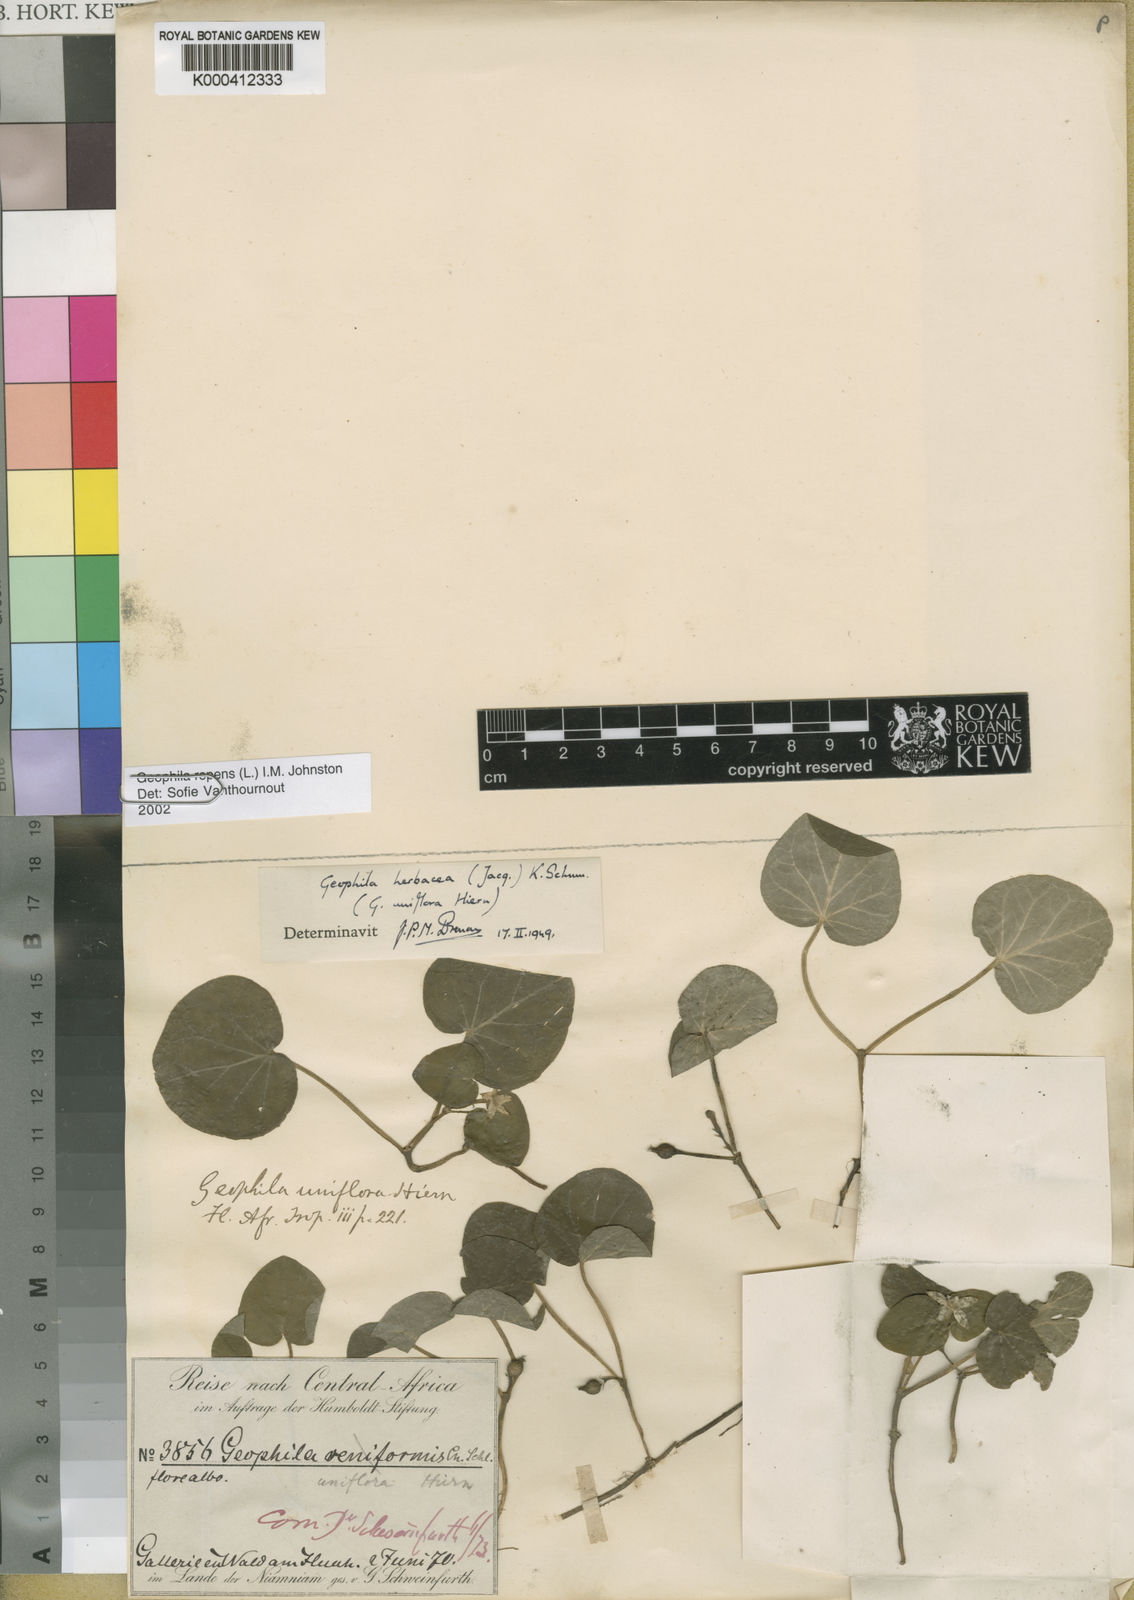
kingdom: Plantae
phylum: Tracheophyta
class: Magnoliopsida
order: Gentianales
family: Rubiaceae
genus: Geophila
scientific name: Geophila repens
